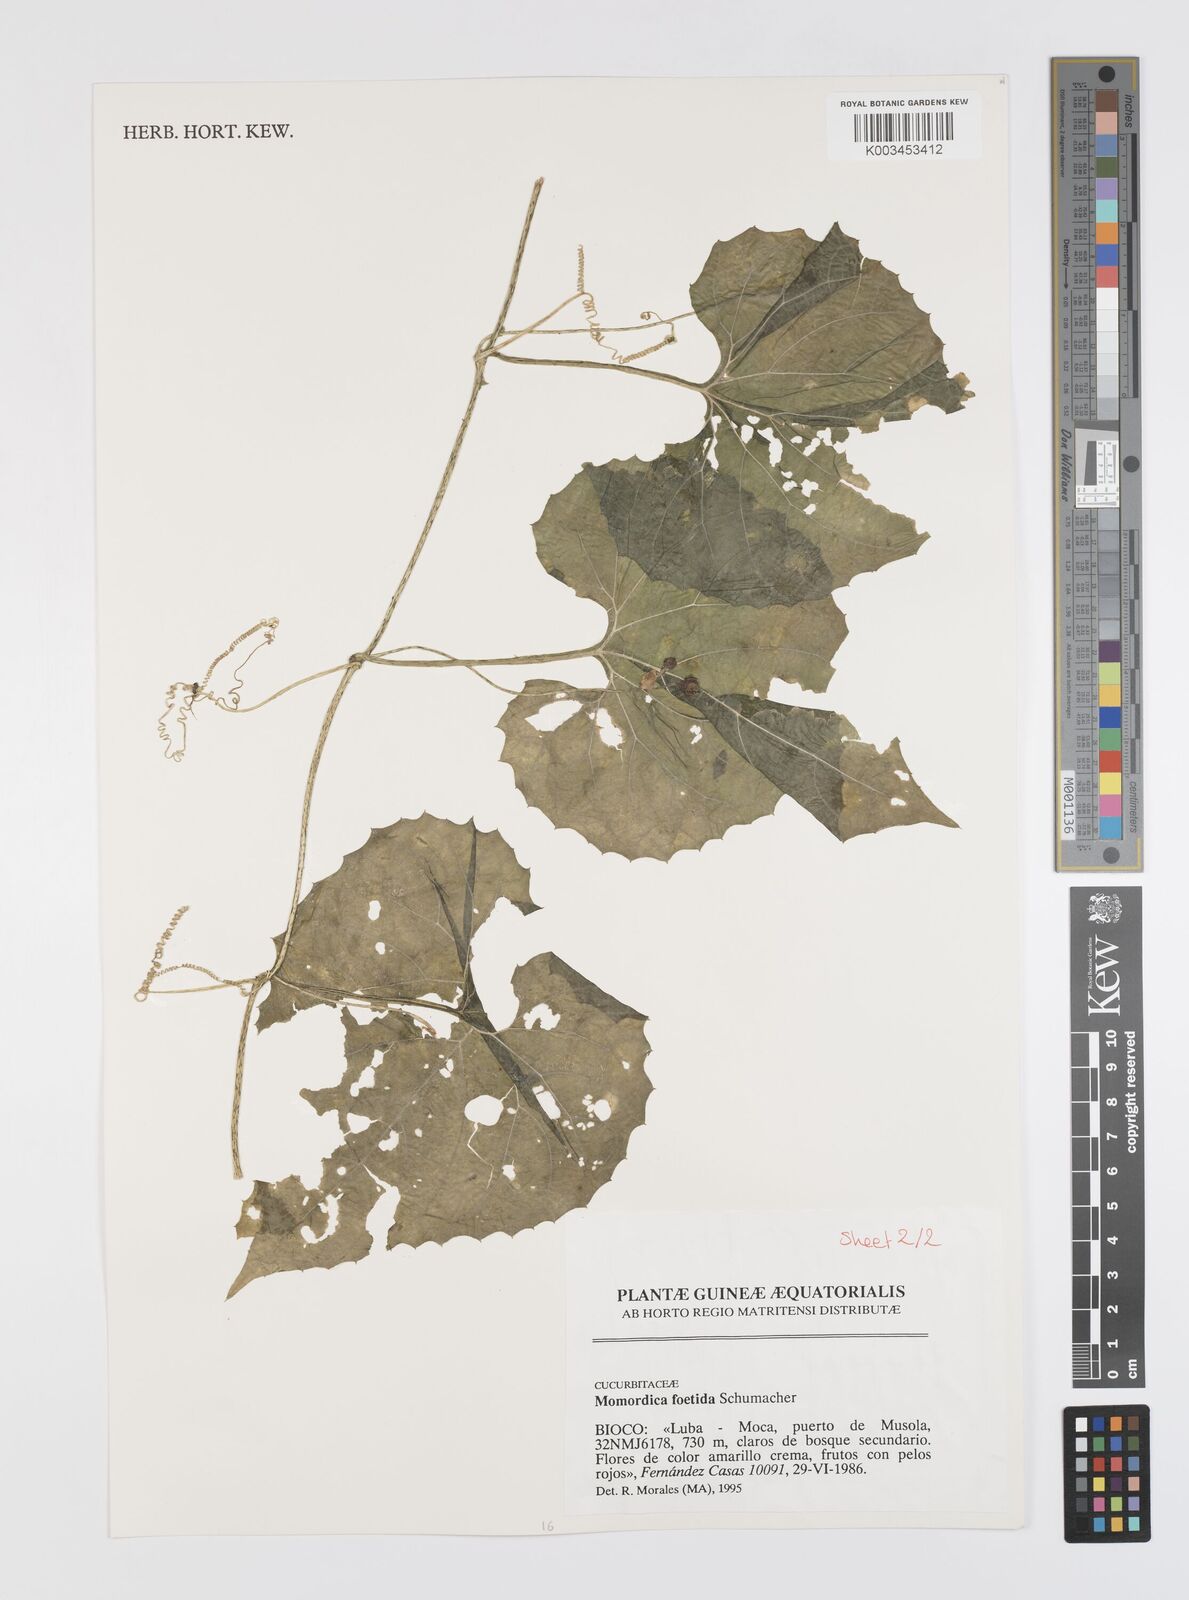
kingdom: Plantae
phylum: Tracheophyta
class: Magnoliopsida
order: Cucurbitales
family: Cucurbitaceae
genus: Momordica
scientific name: Momordica foetida
